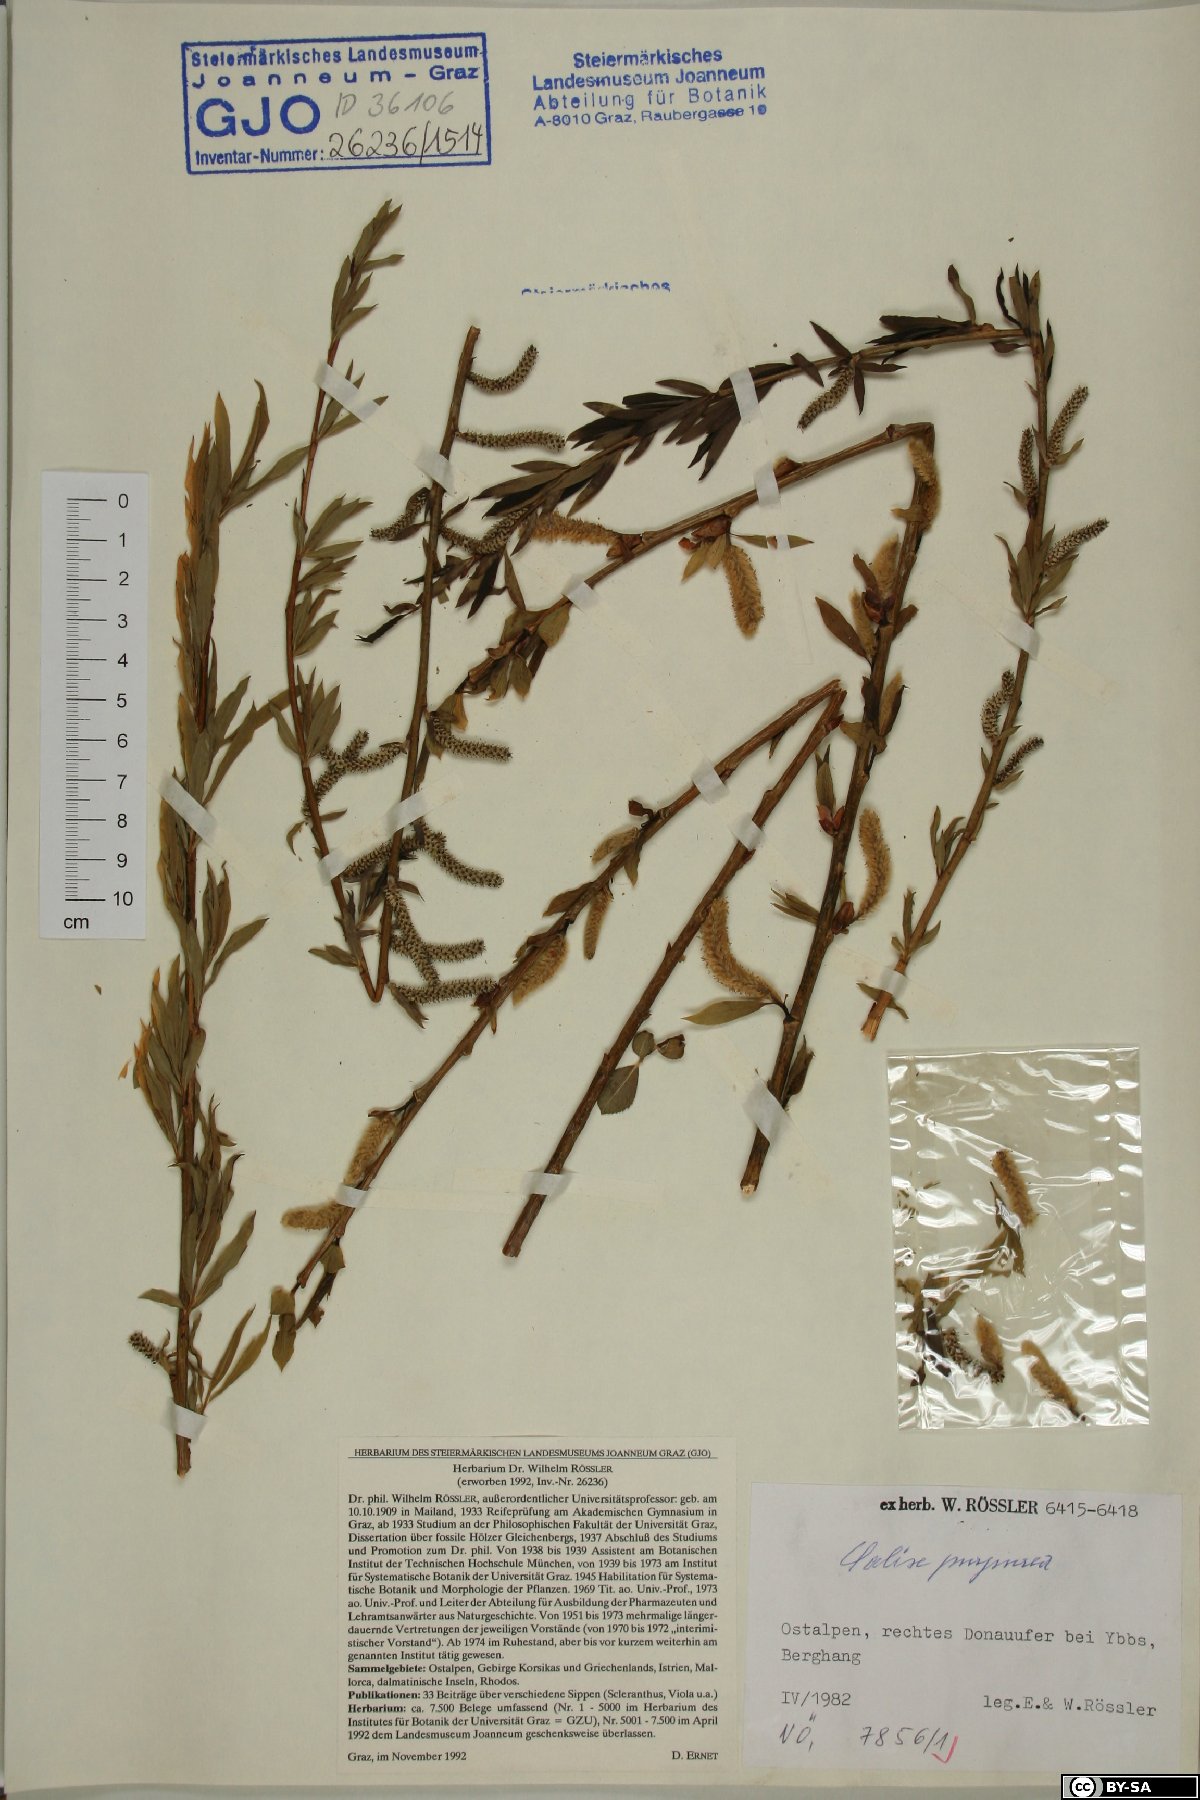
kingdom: Plantae
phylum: Tracheophyta
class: Magnoliopsida
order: Malpighiales
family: Salicaceae
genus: Salix
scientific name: Salix purpurea
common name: Purple willow
